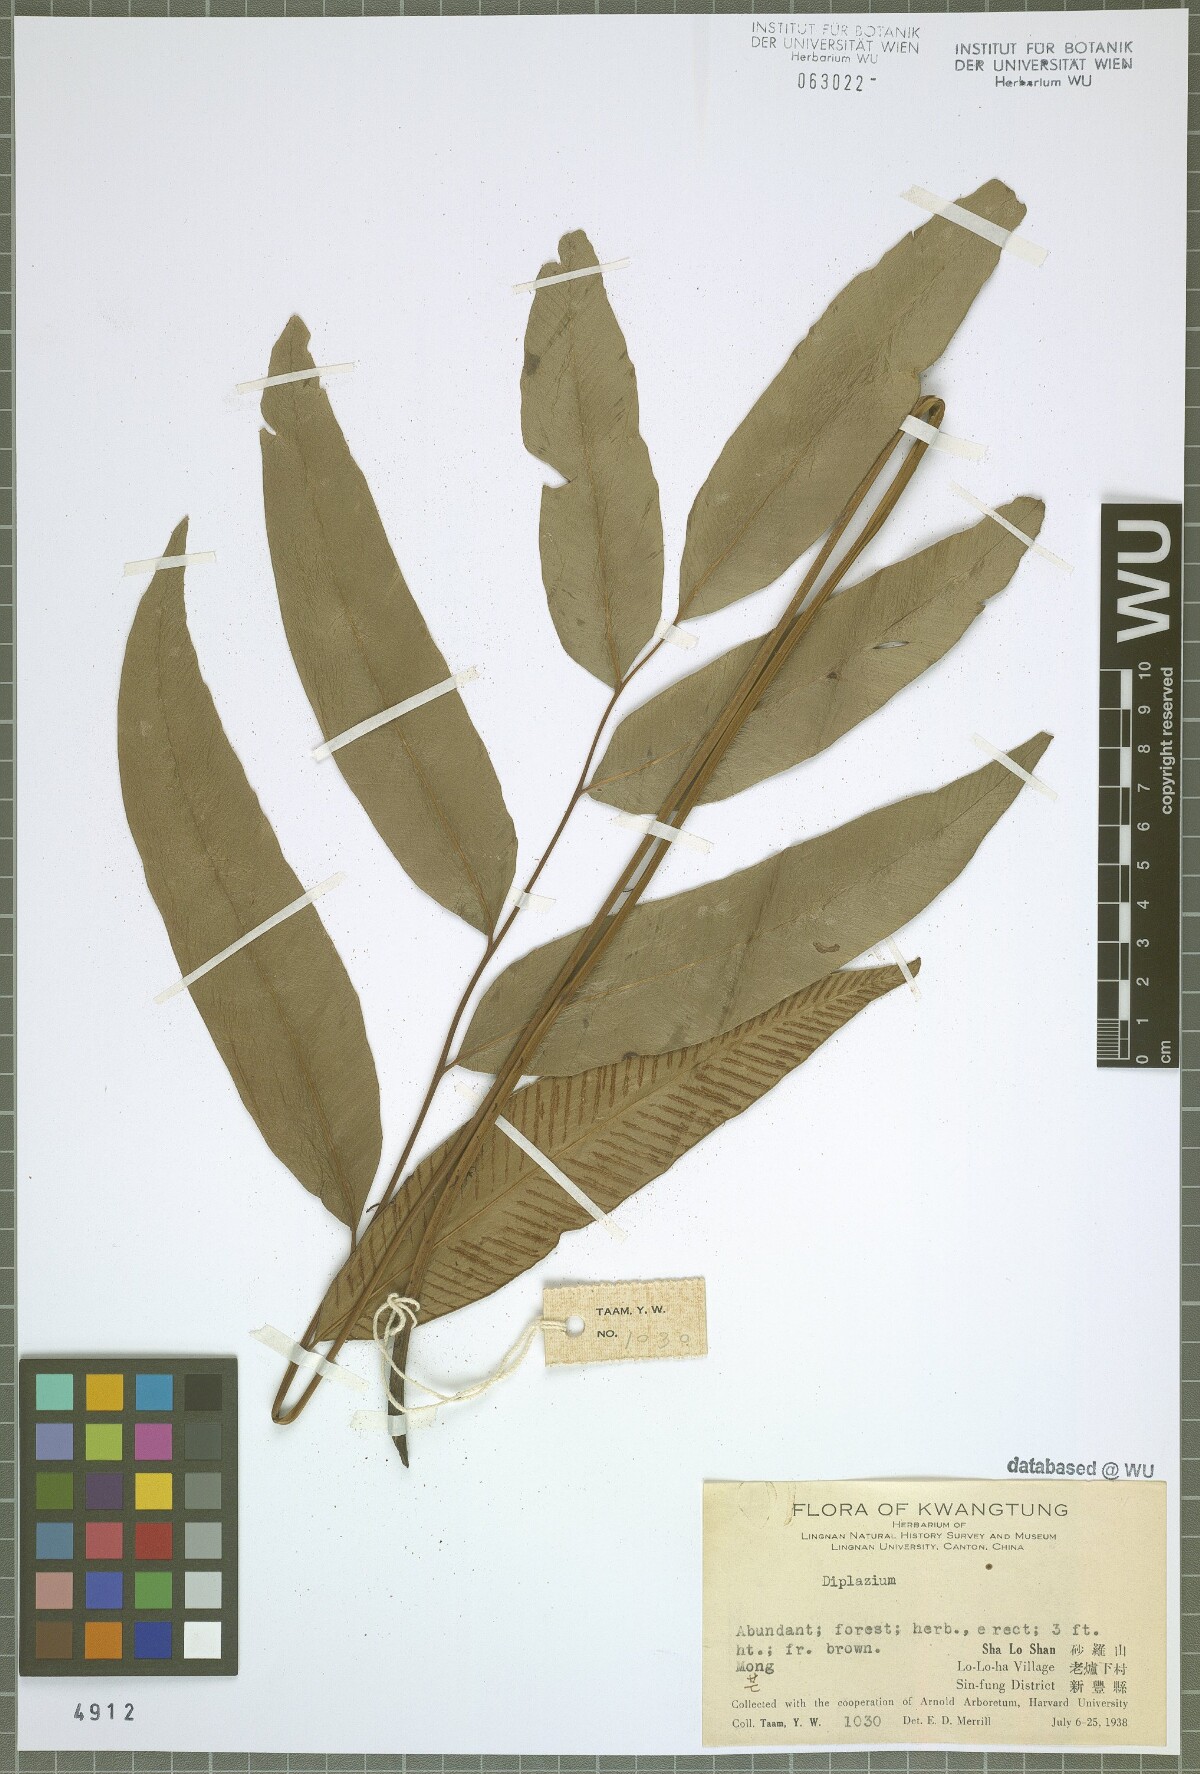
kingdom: Plantae
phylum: Tracheophyta
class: Polypodiopsida
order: Polypodiales
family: Athyriaceae
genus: Diplazium
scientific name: Diplazium
